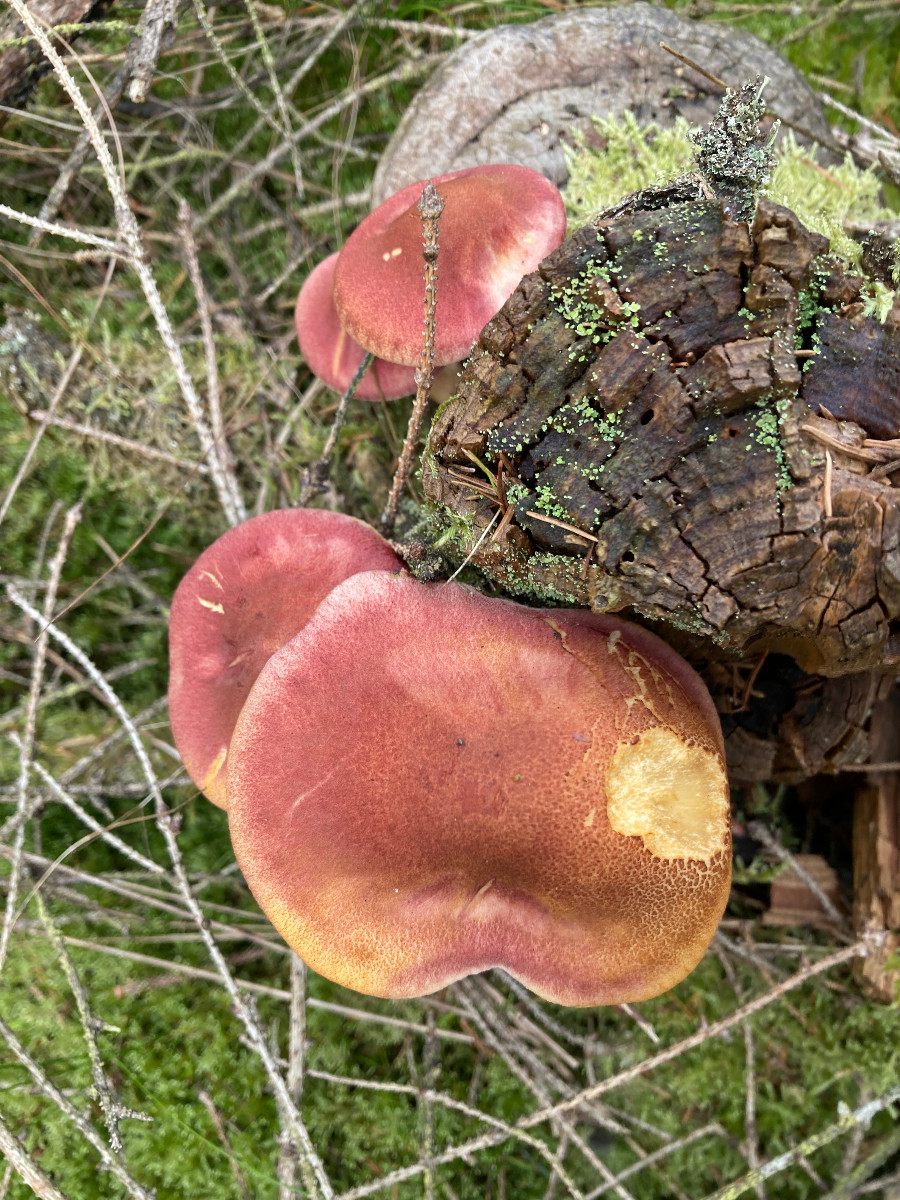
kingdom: Fungi
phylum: Basidiomycota
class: Agaricomycetes
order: Agaricales
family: Tricholomataceae
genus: Tricholomopsis
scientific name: Tricholomopsis rutilans
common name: purpur-væbnerhat
